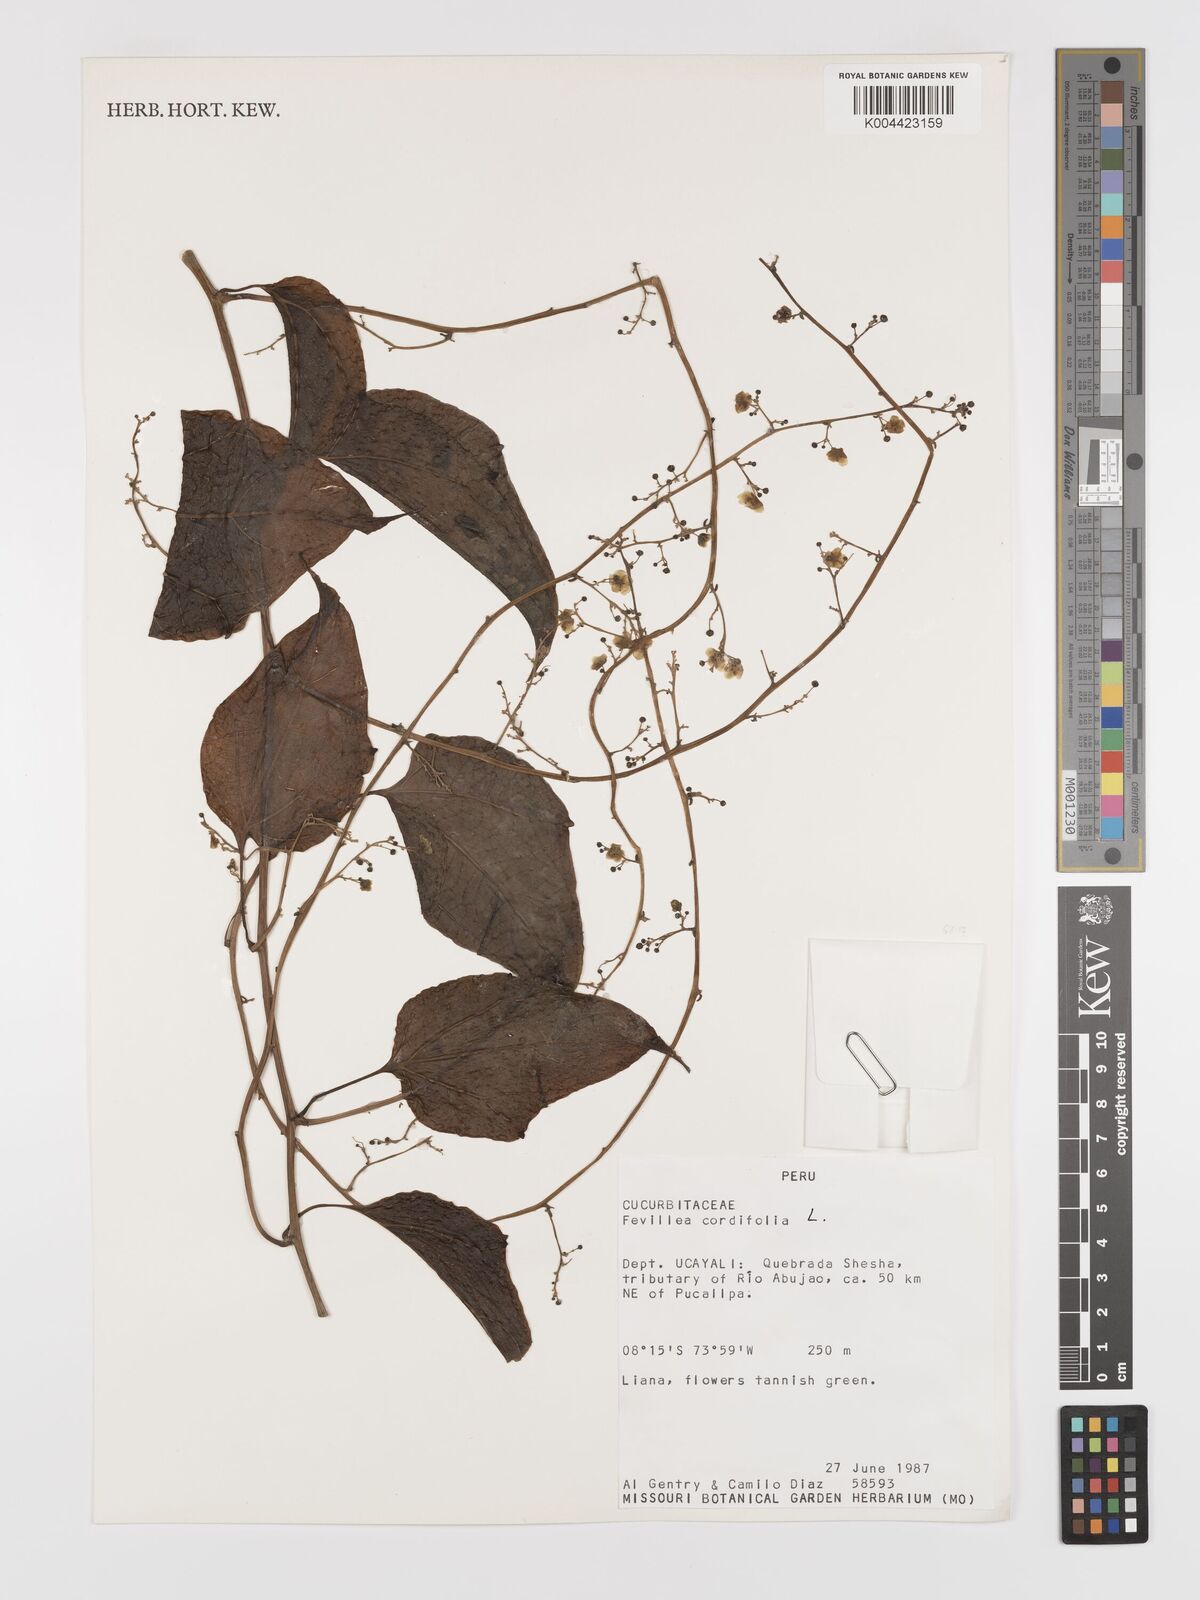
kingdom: Plantae
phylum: Tracheophyta
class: Magnoliopsida
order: Cucurbitales
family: Cucurbitaceae
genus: Fevillea
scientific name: Fevillea
